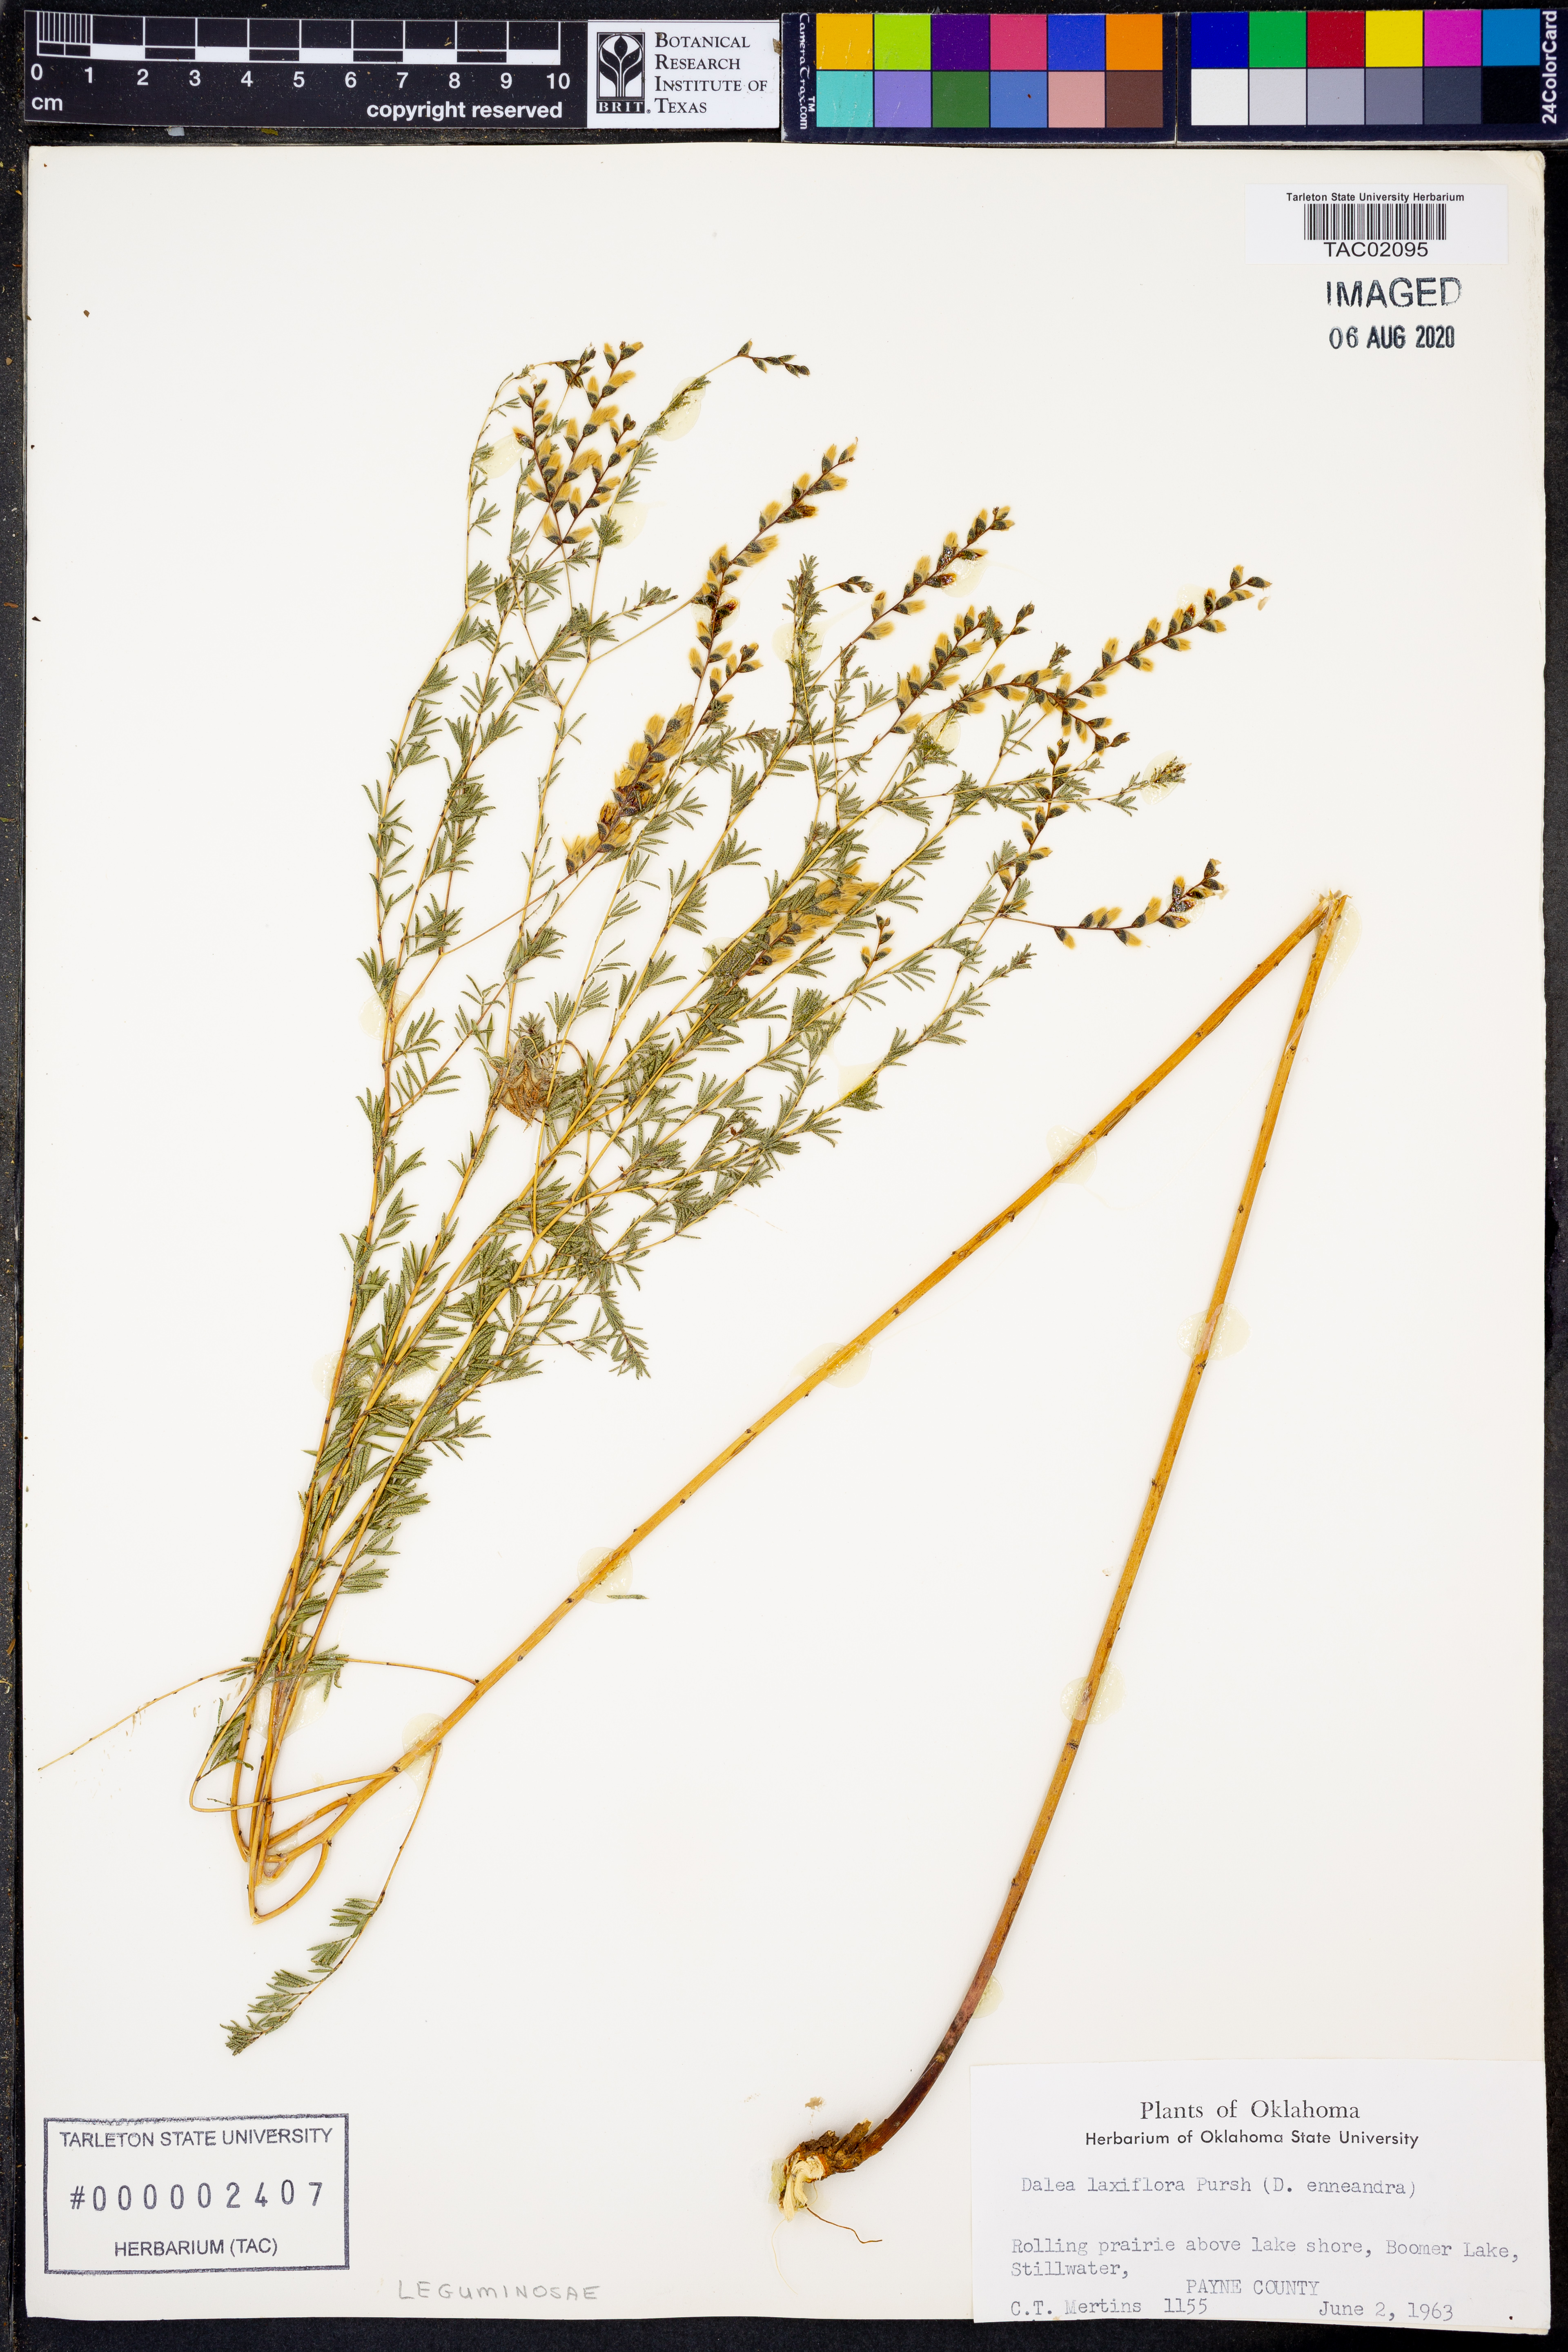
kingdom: Plantae
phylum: Tracheophyta
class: Magnoliopsida
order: Fabales
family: Fabaceae
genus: Dalea
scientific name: Dalea hegewischiana
